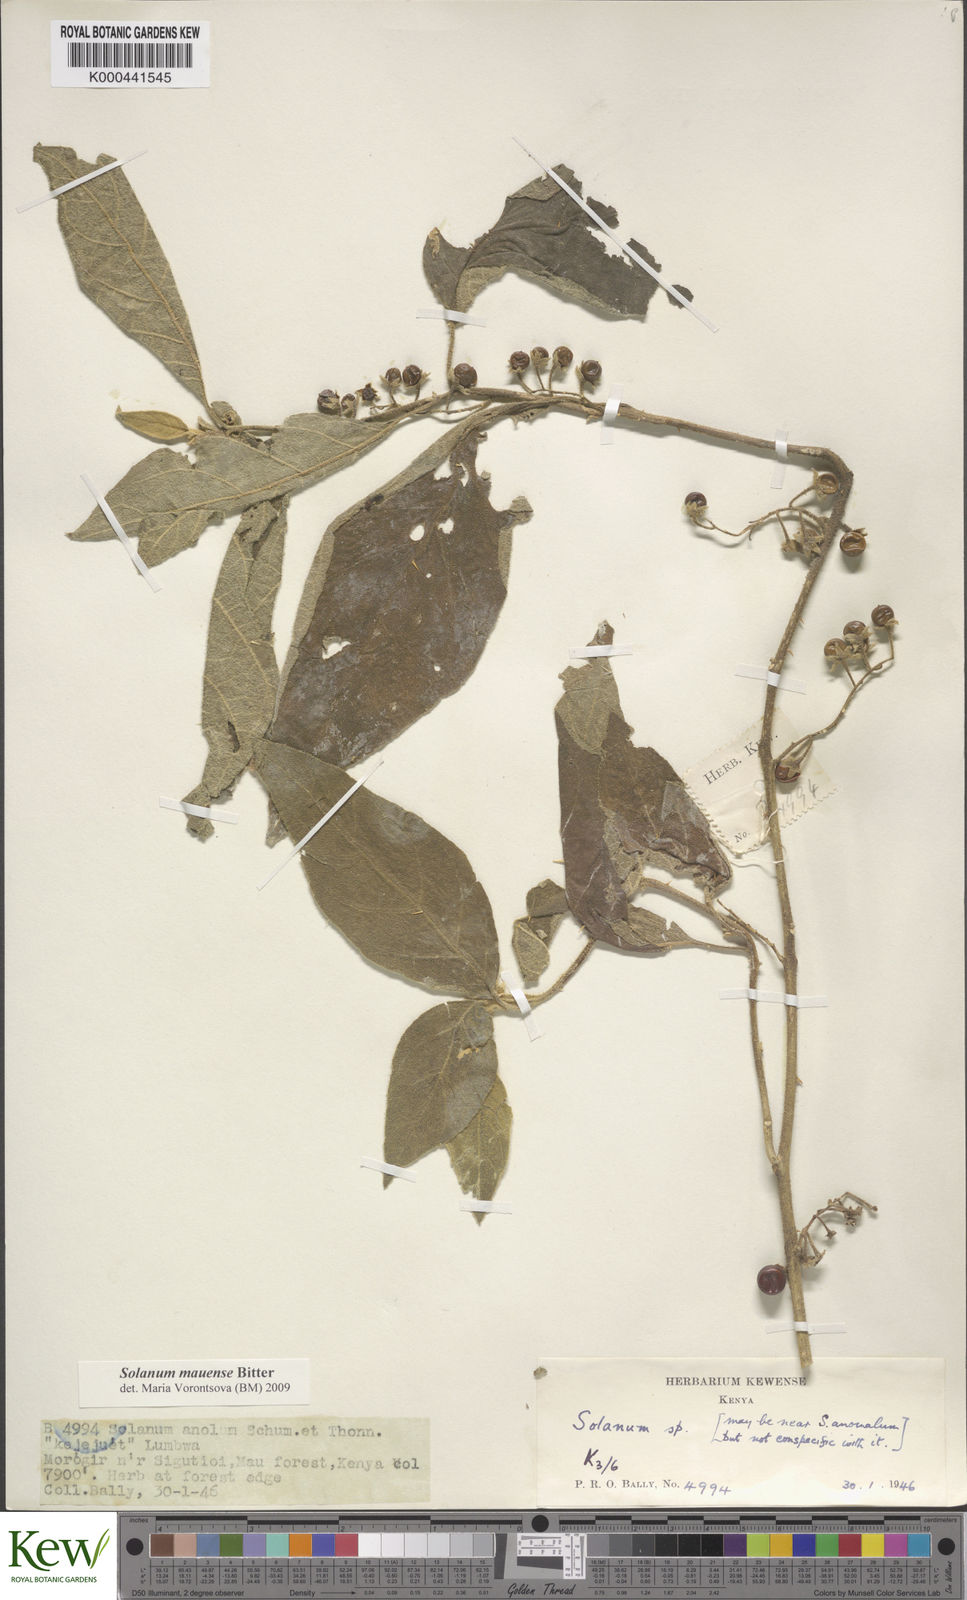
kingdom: Plantae
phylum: Tracheophyta
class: Magnoliopsida
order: Solanales
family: Solanaceae
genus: Solanum
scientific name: Solanum mauense
